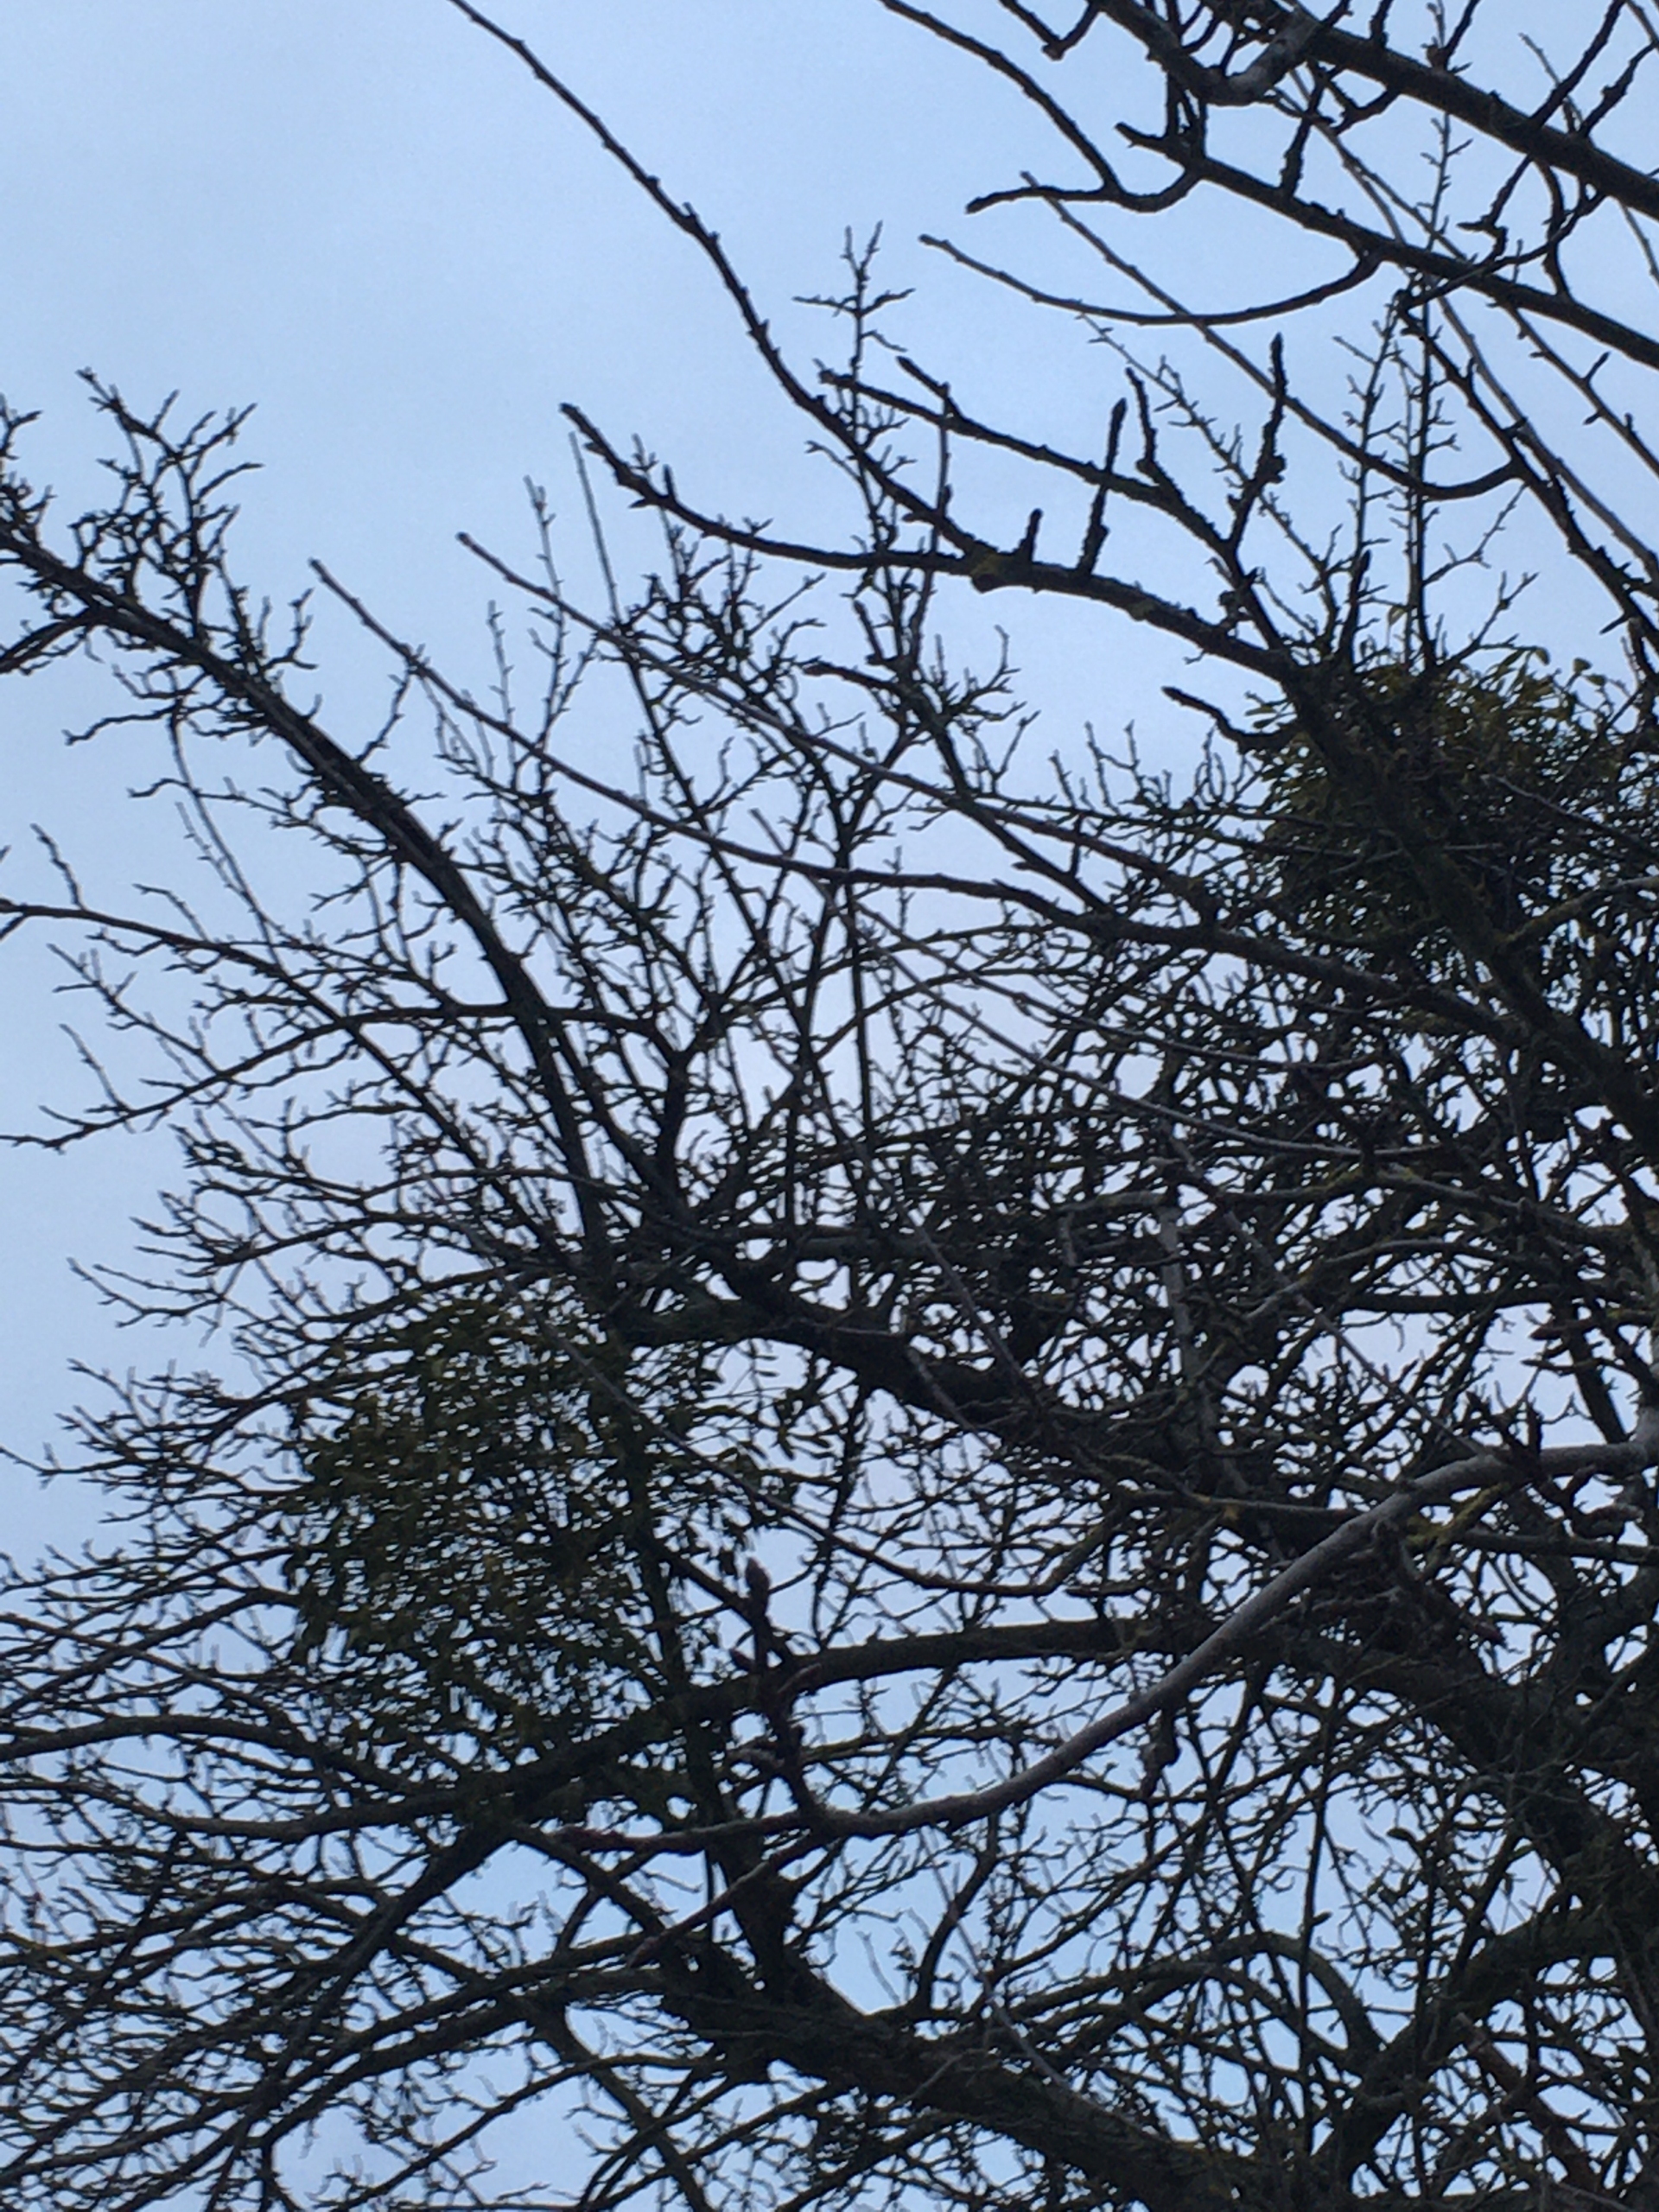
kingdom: Plantae
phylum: Tracheophyta
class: Magnoliopsida
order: Santalales
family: Viscaceae
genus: Viscum
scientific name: Viscum album
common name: Mistelten
